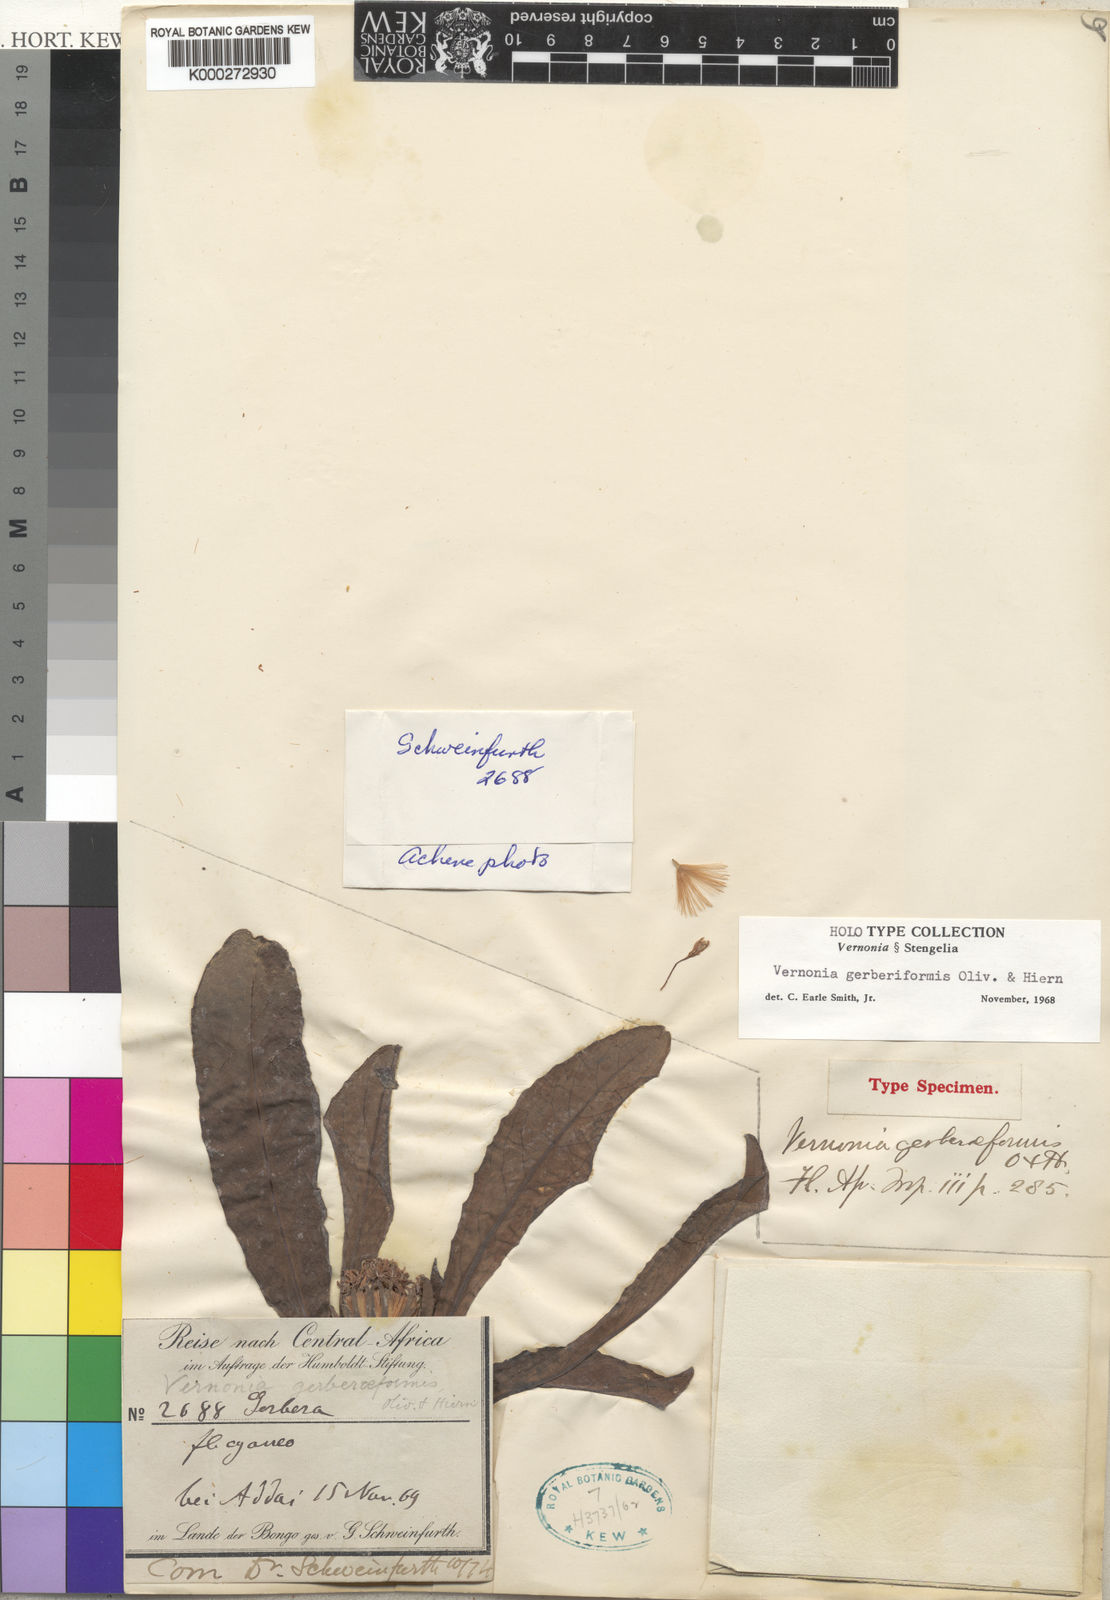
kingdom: Plantae
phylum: Tracheophyta
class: Magnoliopsida
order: Asterales
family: Asteraceae
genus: Linzia
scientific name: Linzia gerberiformis
